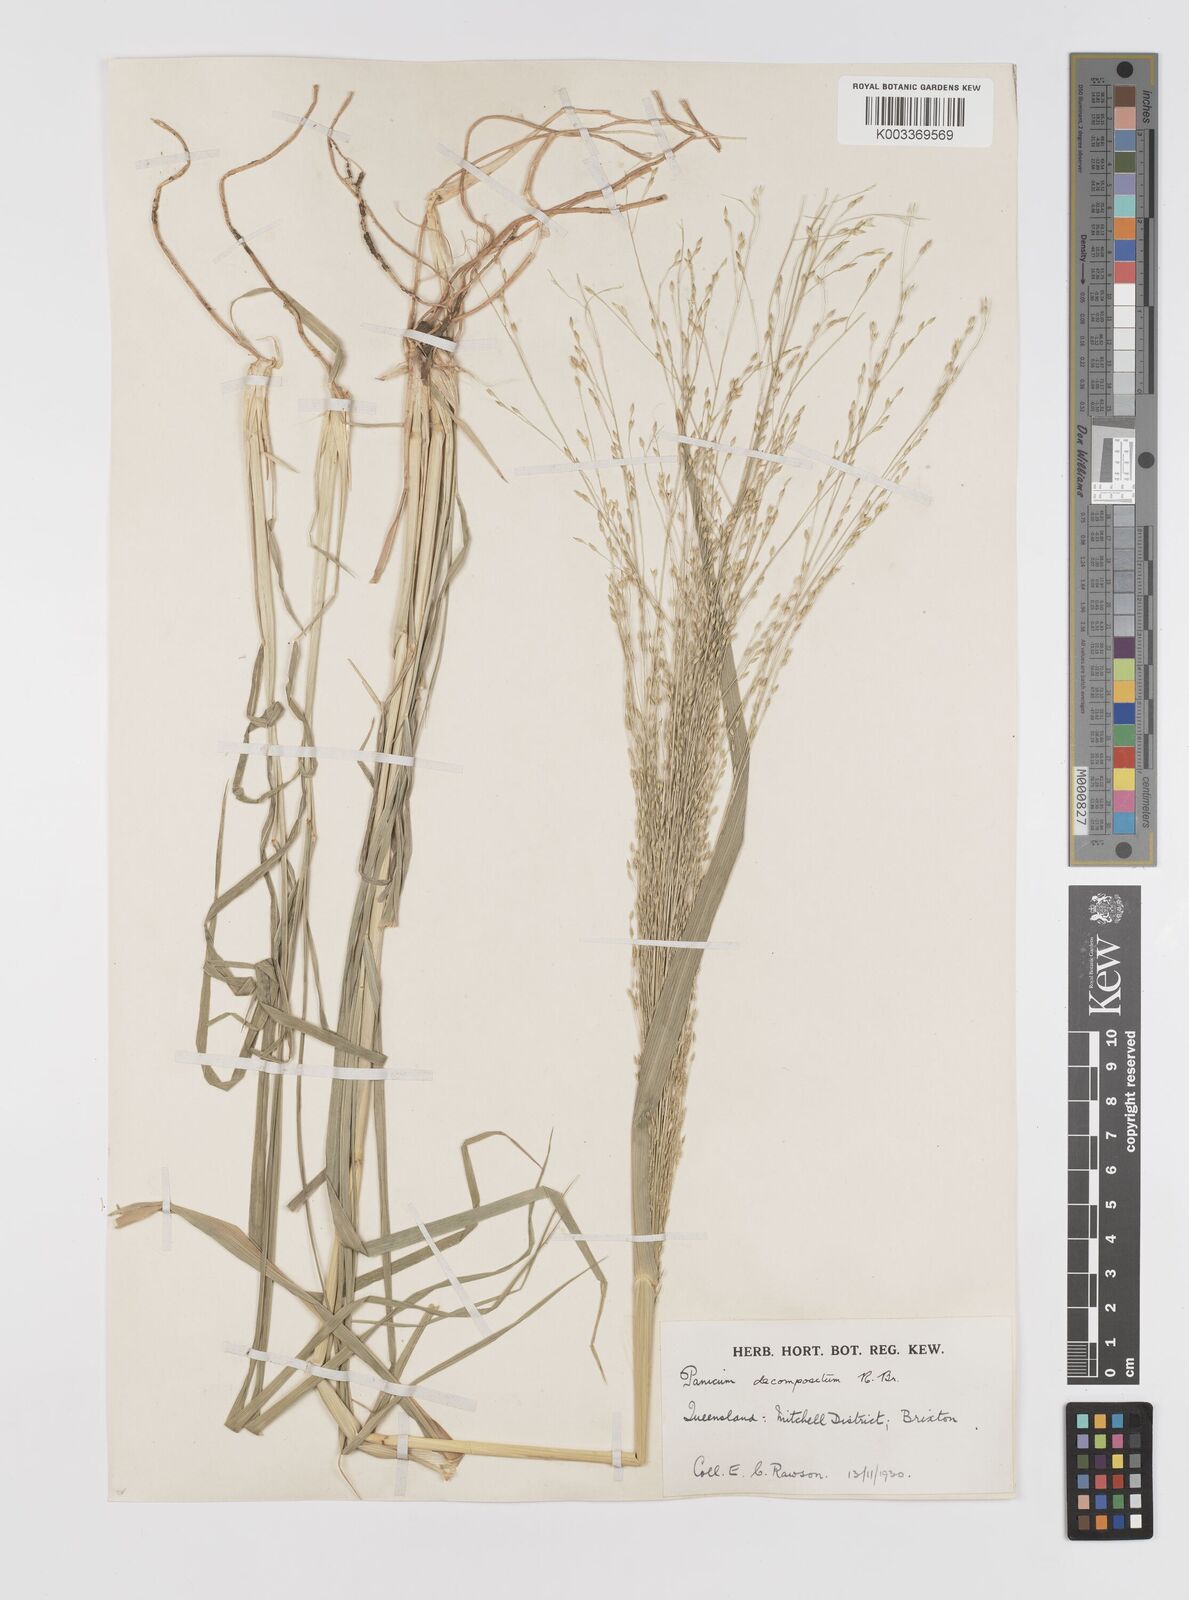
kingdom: Plantae
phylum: Tracheophyta
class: Liliopsida
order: Poales
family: Poaceae
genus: Panicum
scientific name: Panicum decompositum
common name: Australian millet
